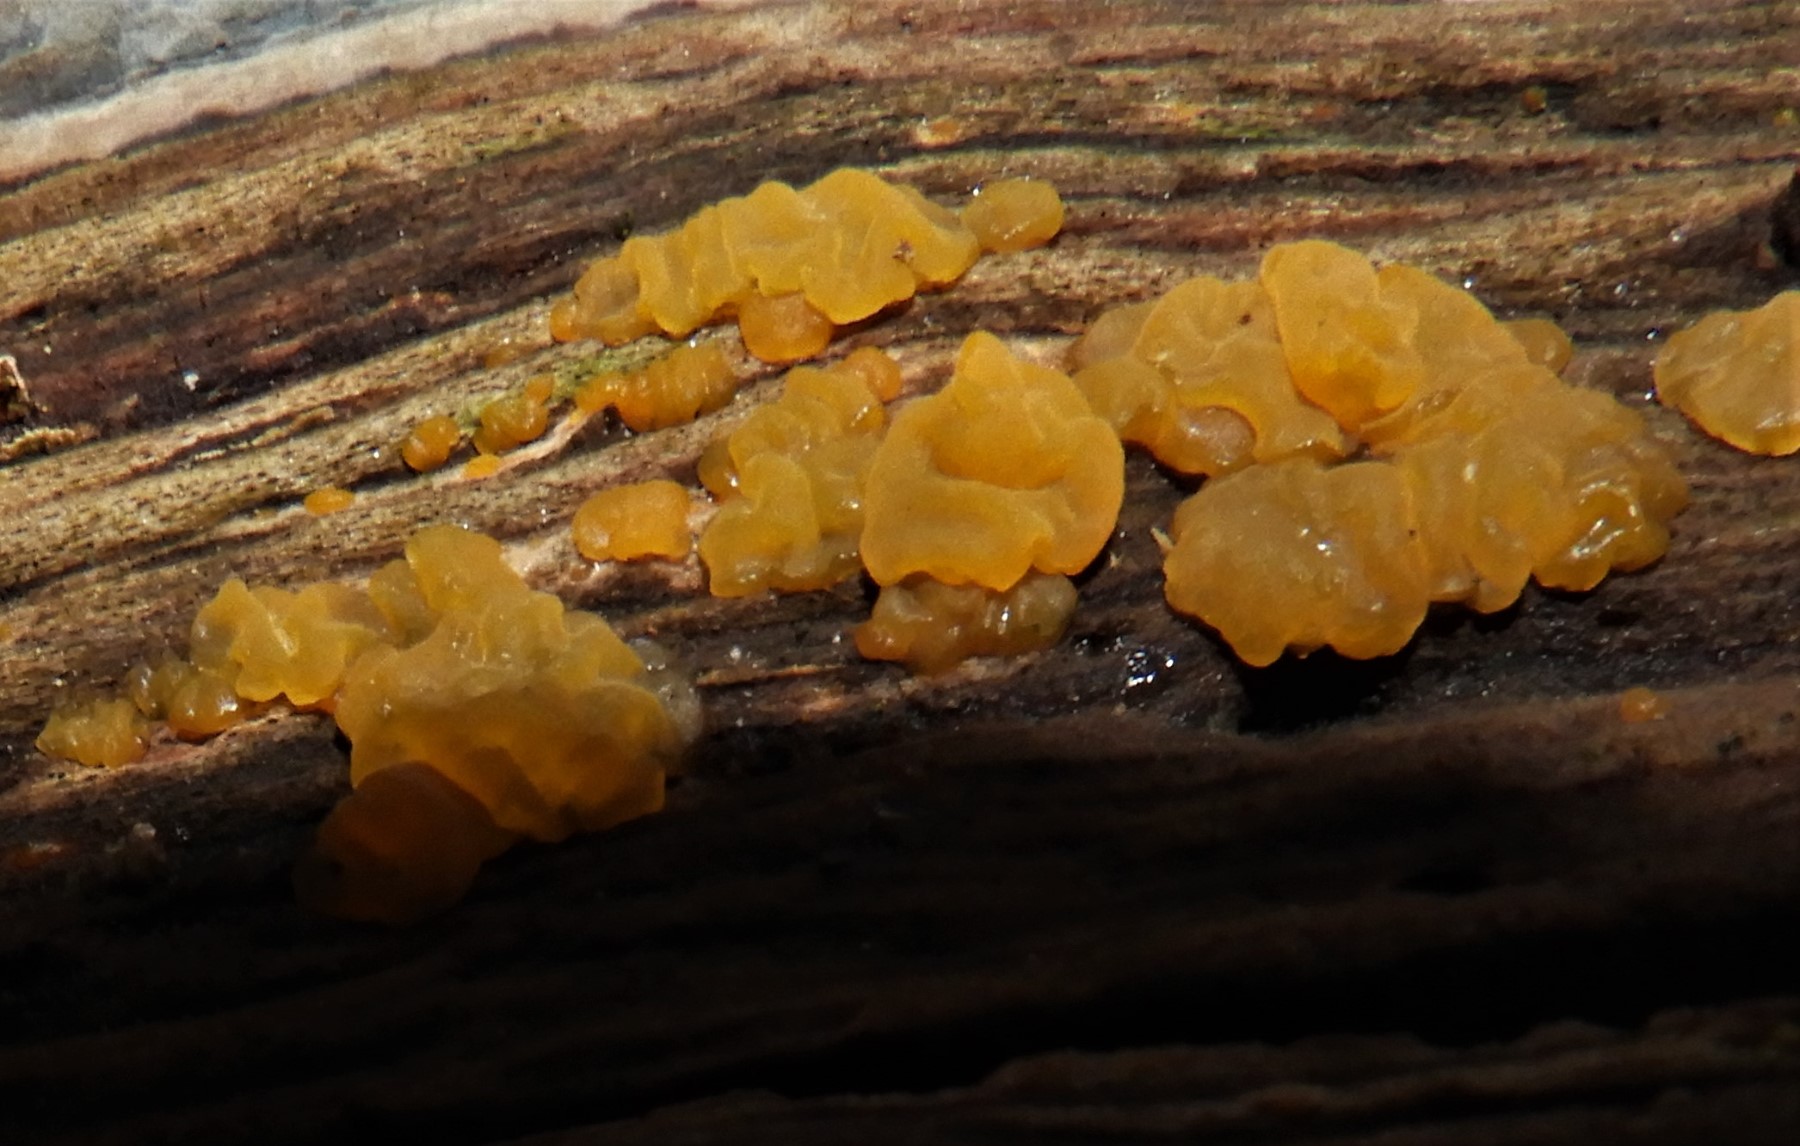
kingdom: Fungi
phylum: Basidiomycota
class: Dacrymycetes
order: Dacrymycetales
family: Dacrymycetaceae
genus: Dacrymyces
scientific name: Dacrymyces lacrymalis
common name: rynket tåresvamp
